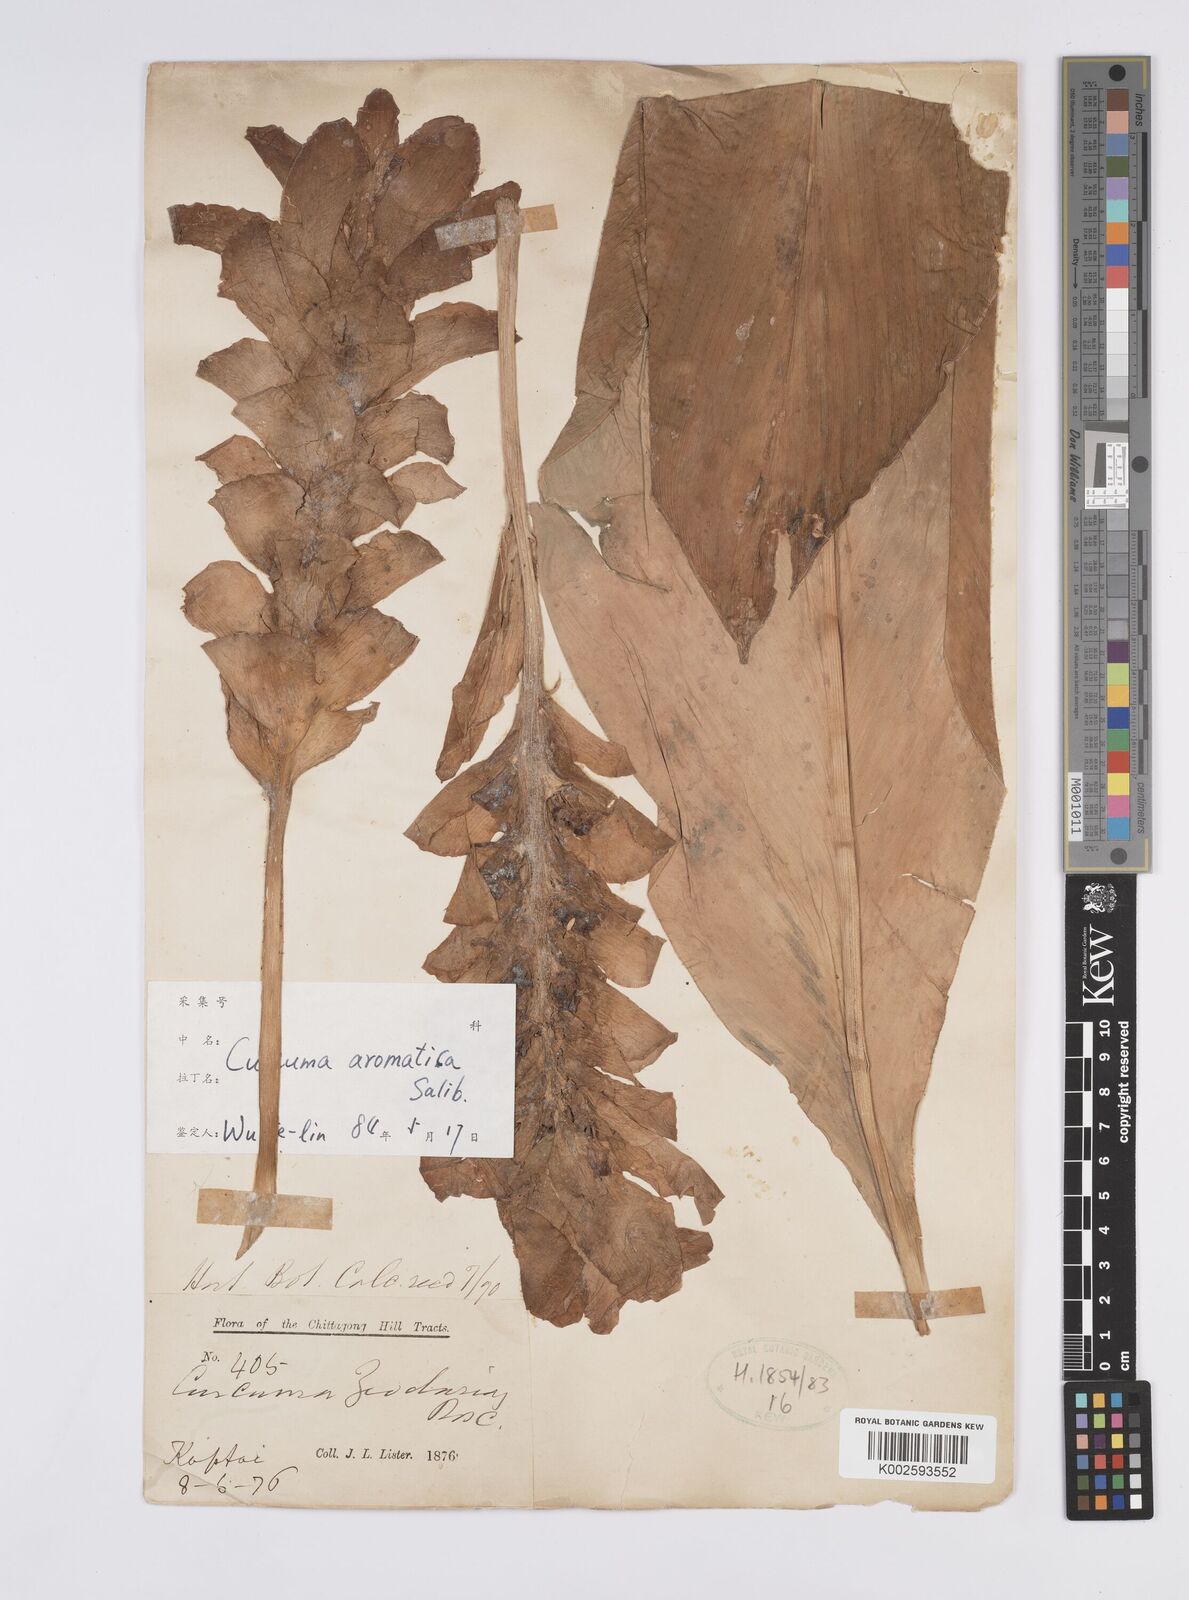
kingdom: Plantae
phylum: Tracheophyta
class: Liliopsida
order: Zingiberales
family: Zingiberaceae
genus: Curcuma
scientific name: Curcuma aromatica
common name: Wild turmeric
